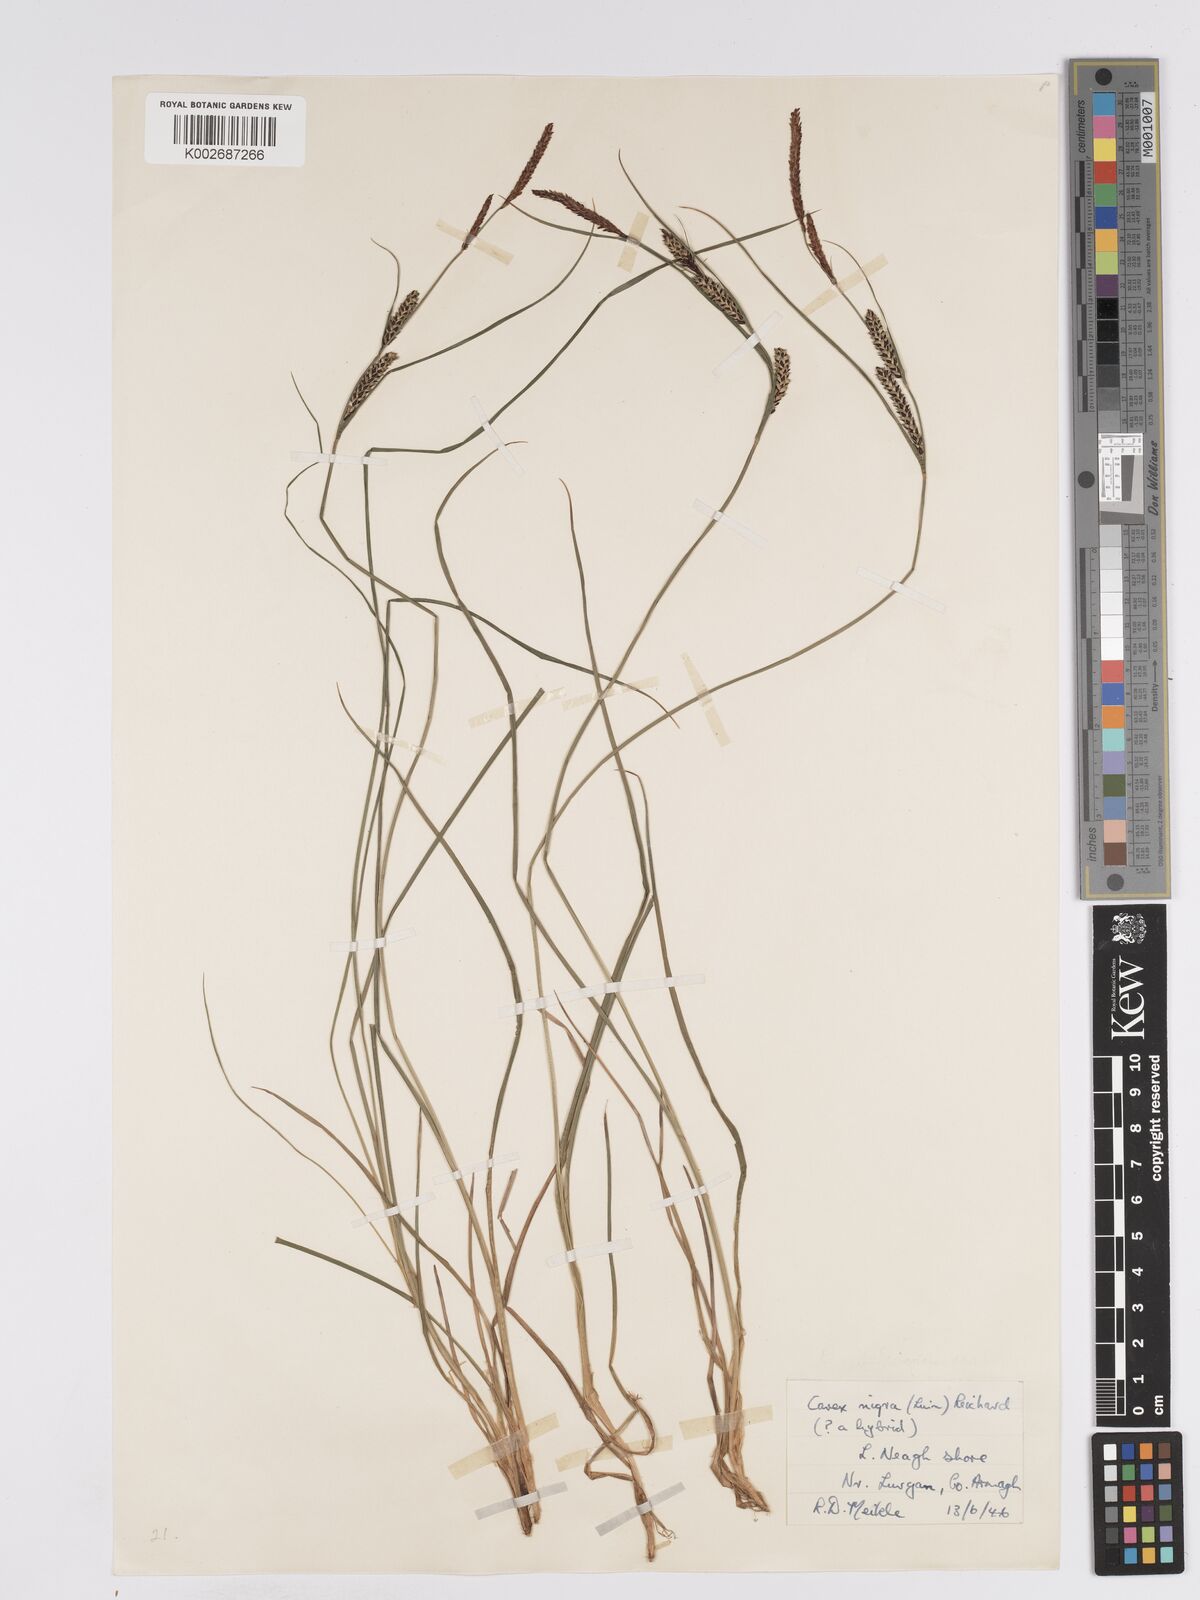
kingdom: Plantae
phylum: Tracheophyta
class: Liliopsida
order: Poales
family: Cyperaceae
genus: Carex
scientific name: Carex nigra
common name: Common sedge
